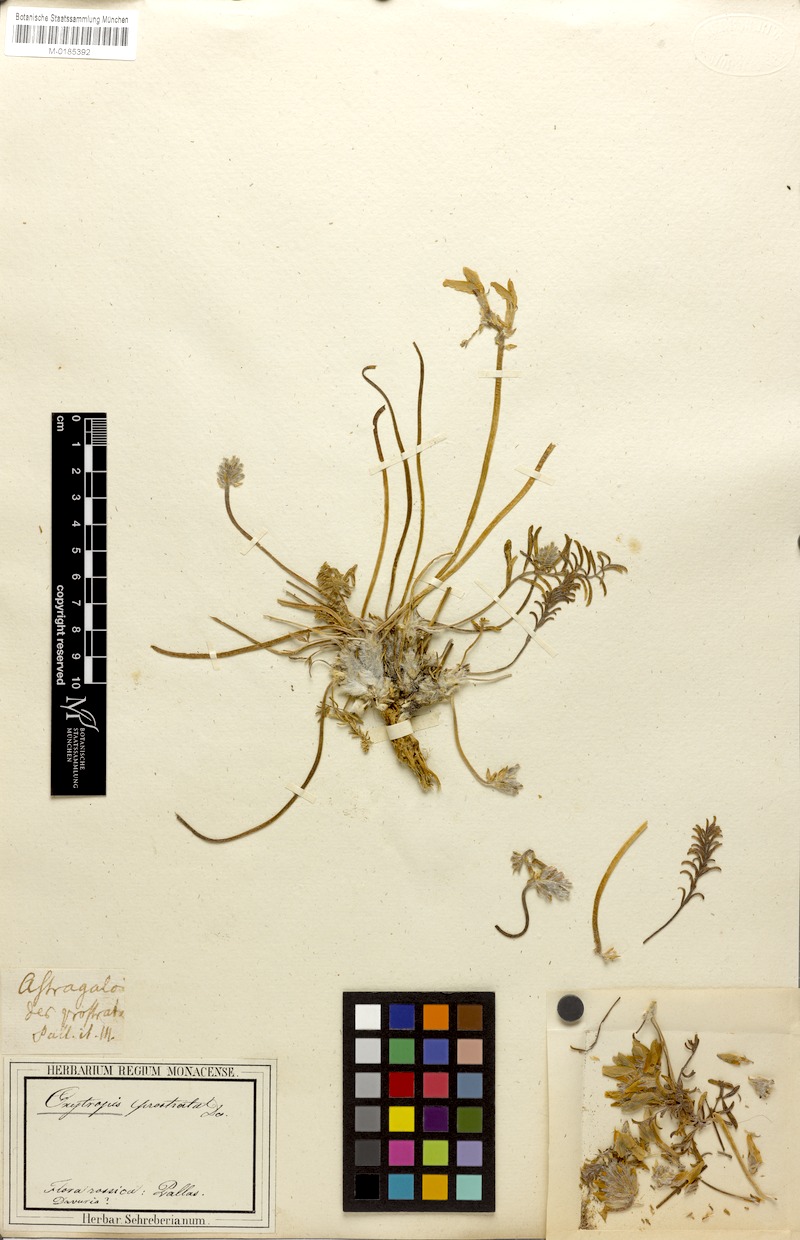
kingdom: Plantae
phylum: Tracheophyta
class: Magnoliopsida
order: Fabales
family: Fabaceae
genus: Oxytropis
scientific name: Oxytropis prostrata
